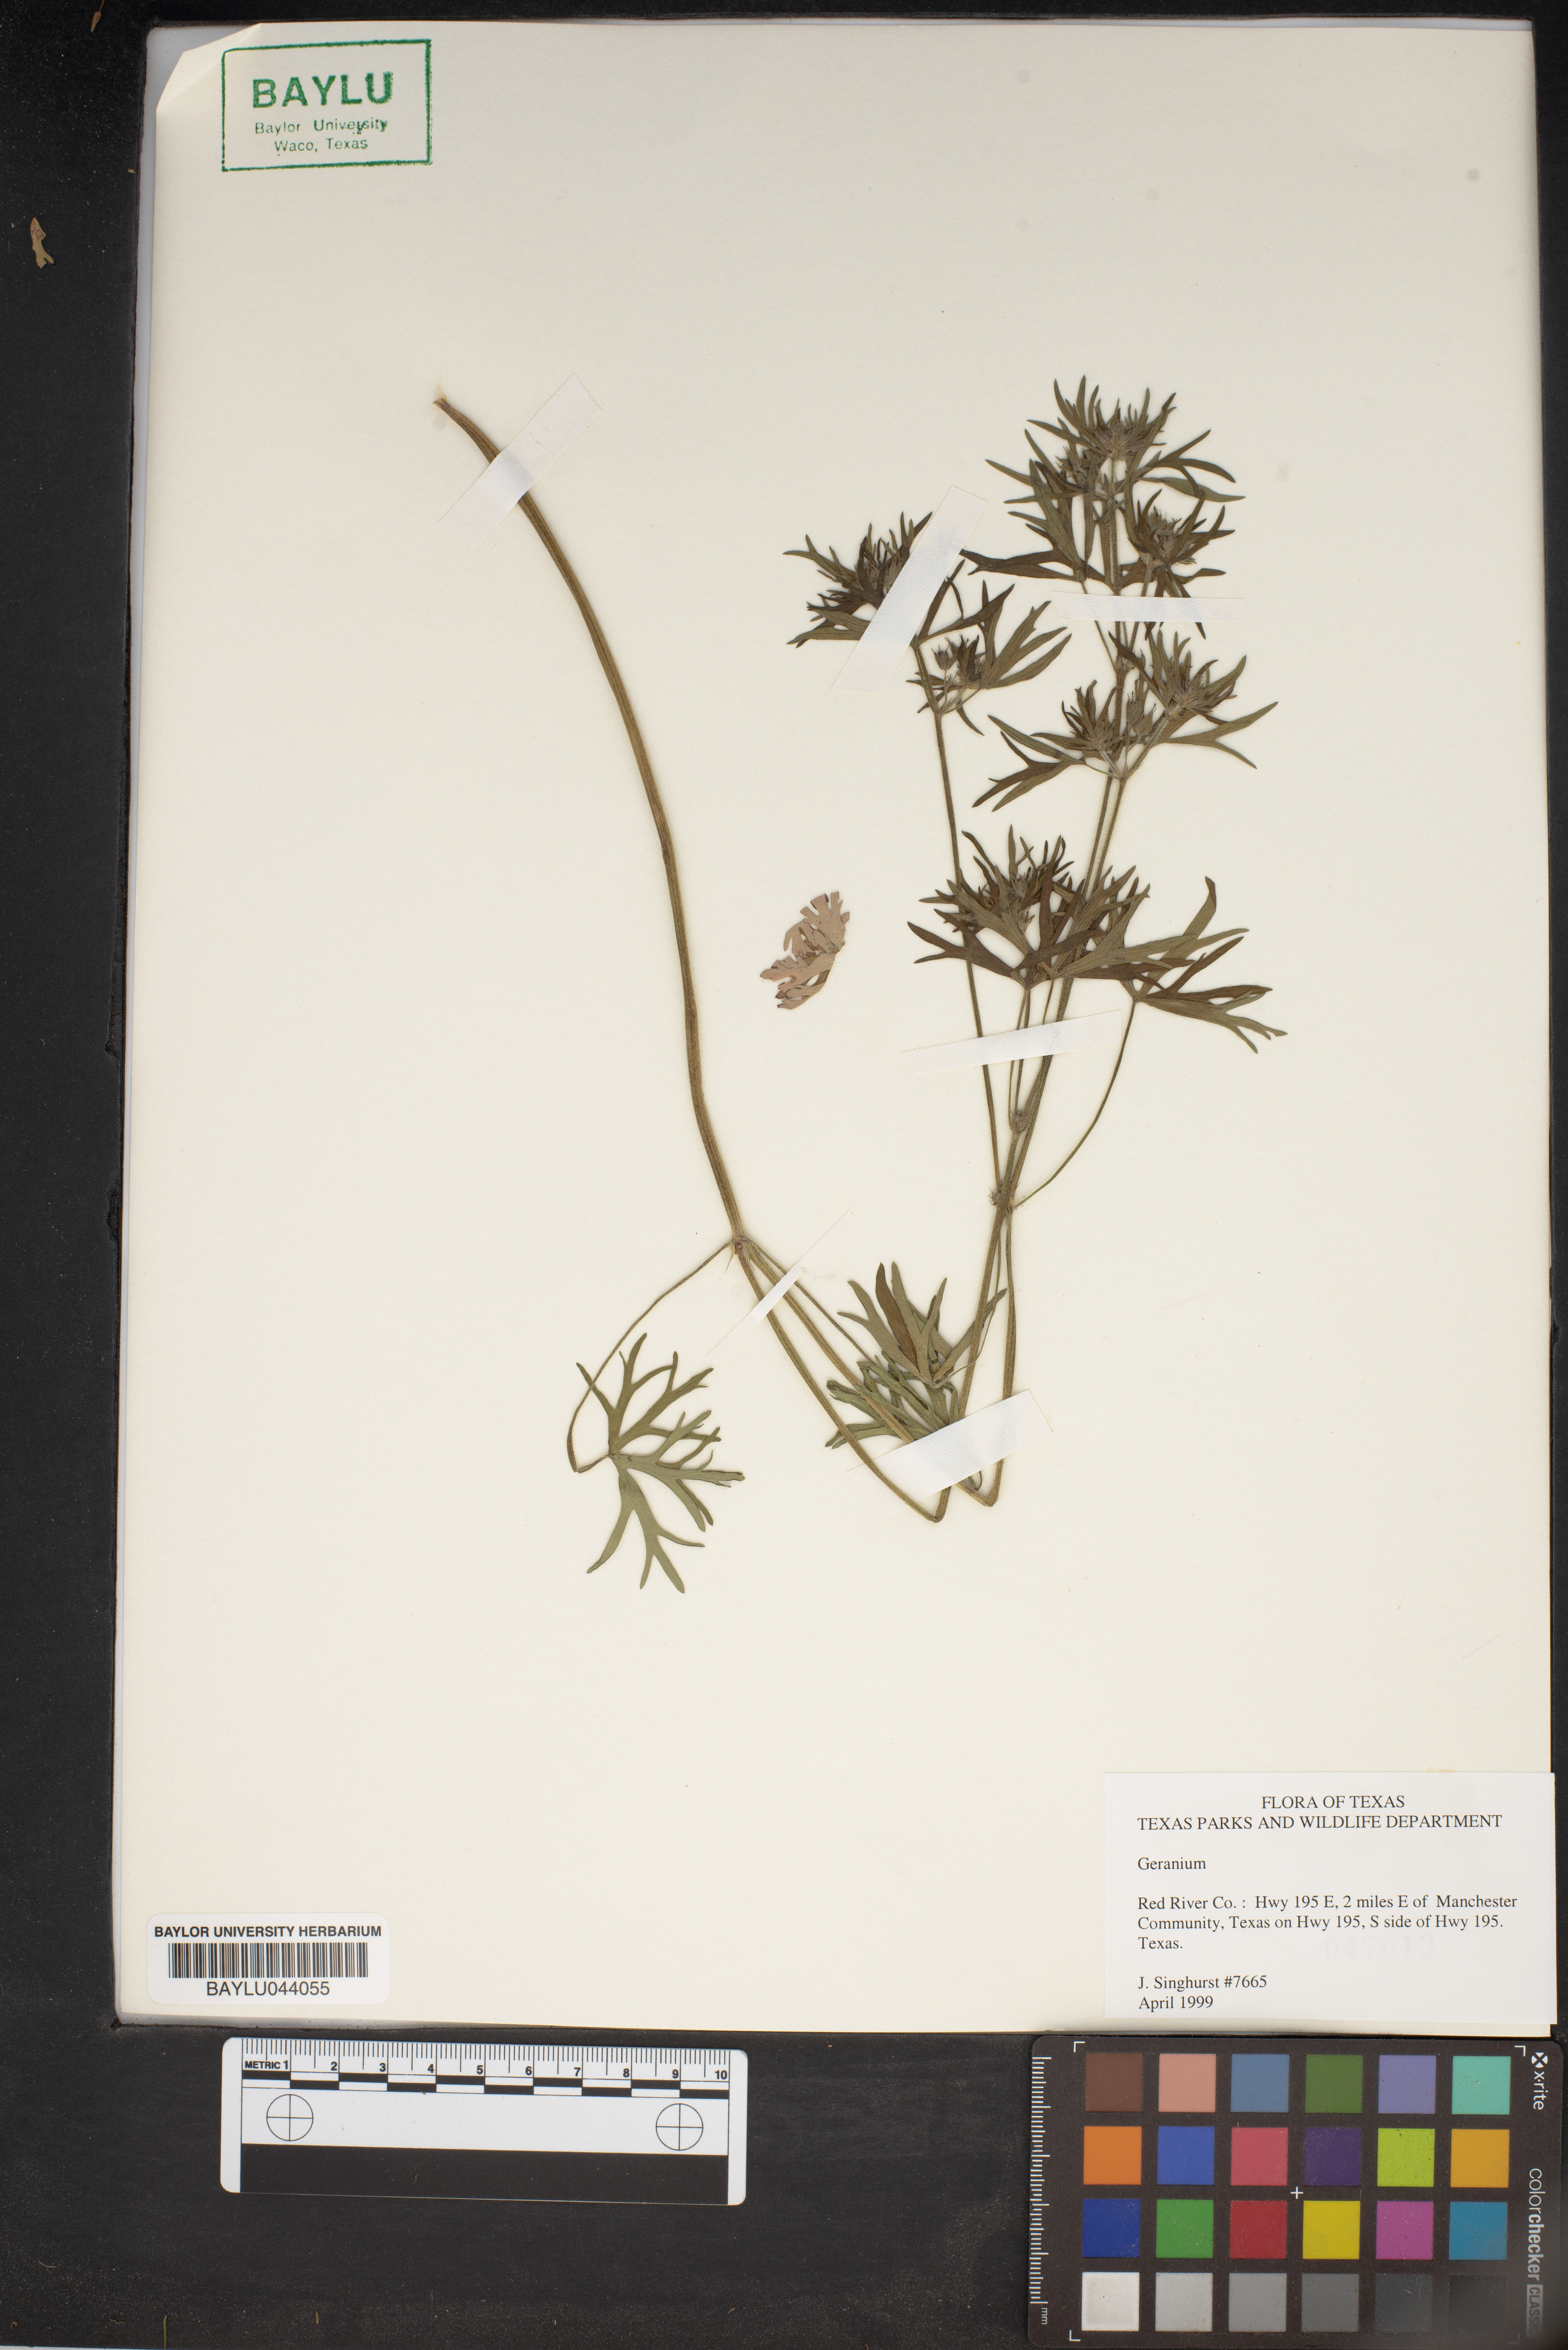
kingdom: Plantae
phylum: Tracheophyta
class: Magnoliopsida
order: Geraniales
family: Geraniaceae
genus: Geranium
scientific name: Geranium
